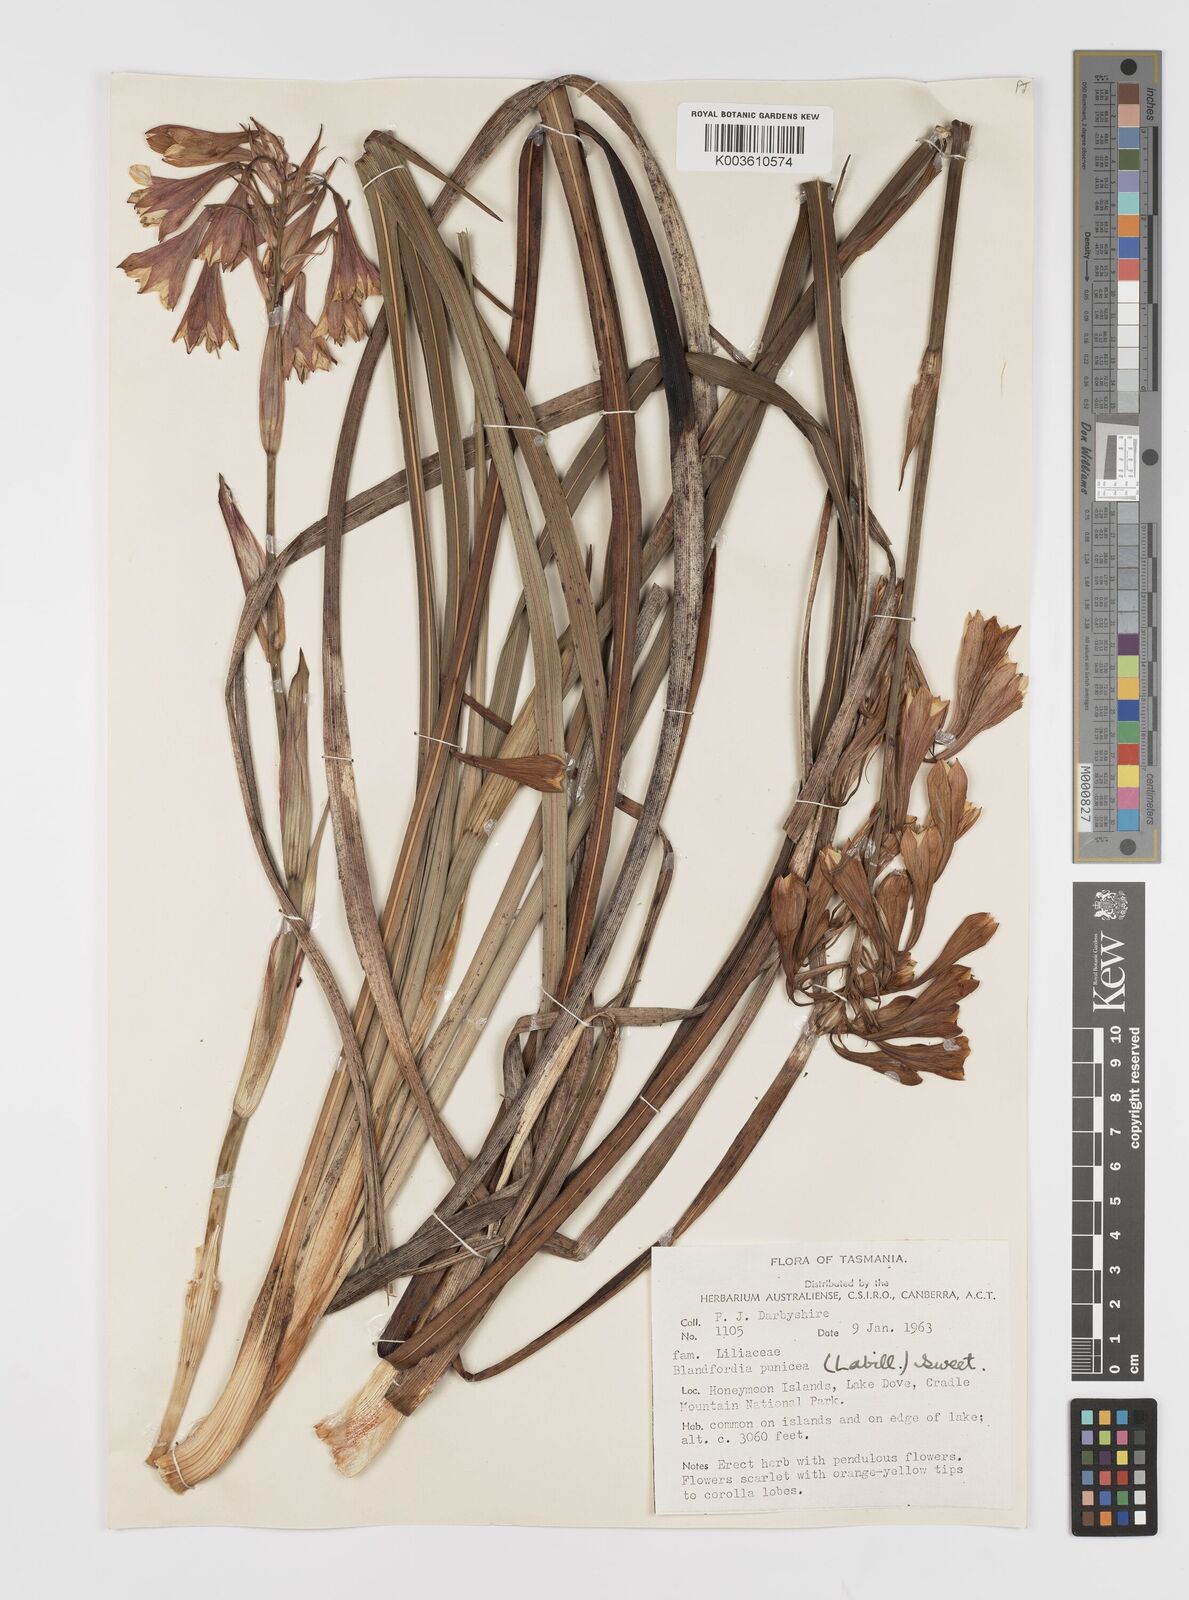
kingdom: Plantae
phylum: Tracheophyta
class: Liliopsida
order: Asparagales
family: Blandfordiaceae
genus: Blandfordia
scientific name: Blandfordia punicea
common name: Tasmanian christmas-bell
